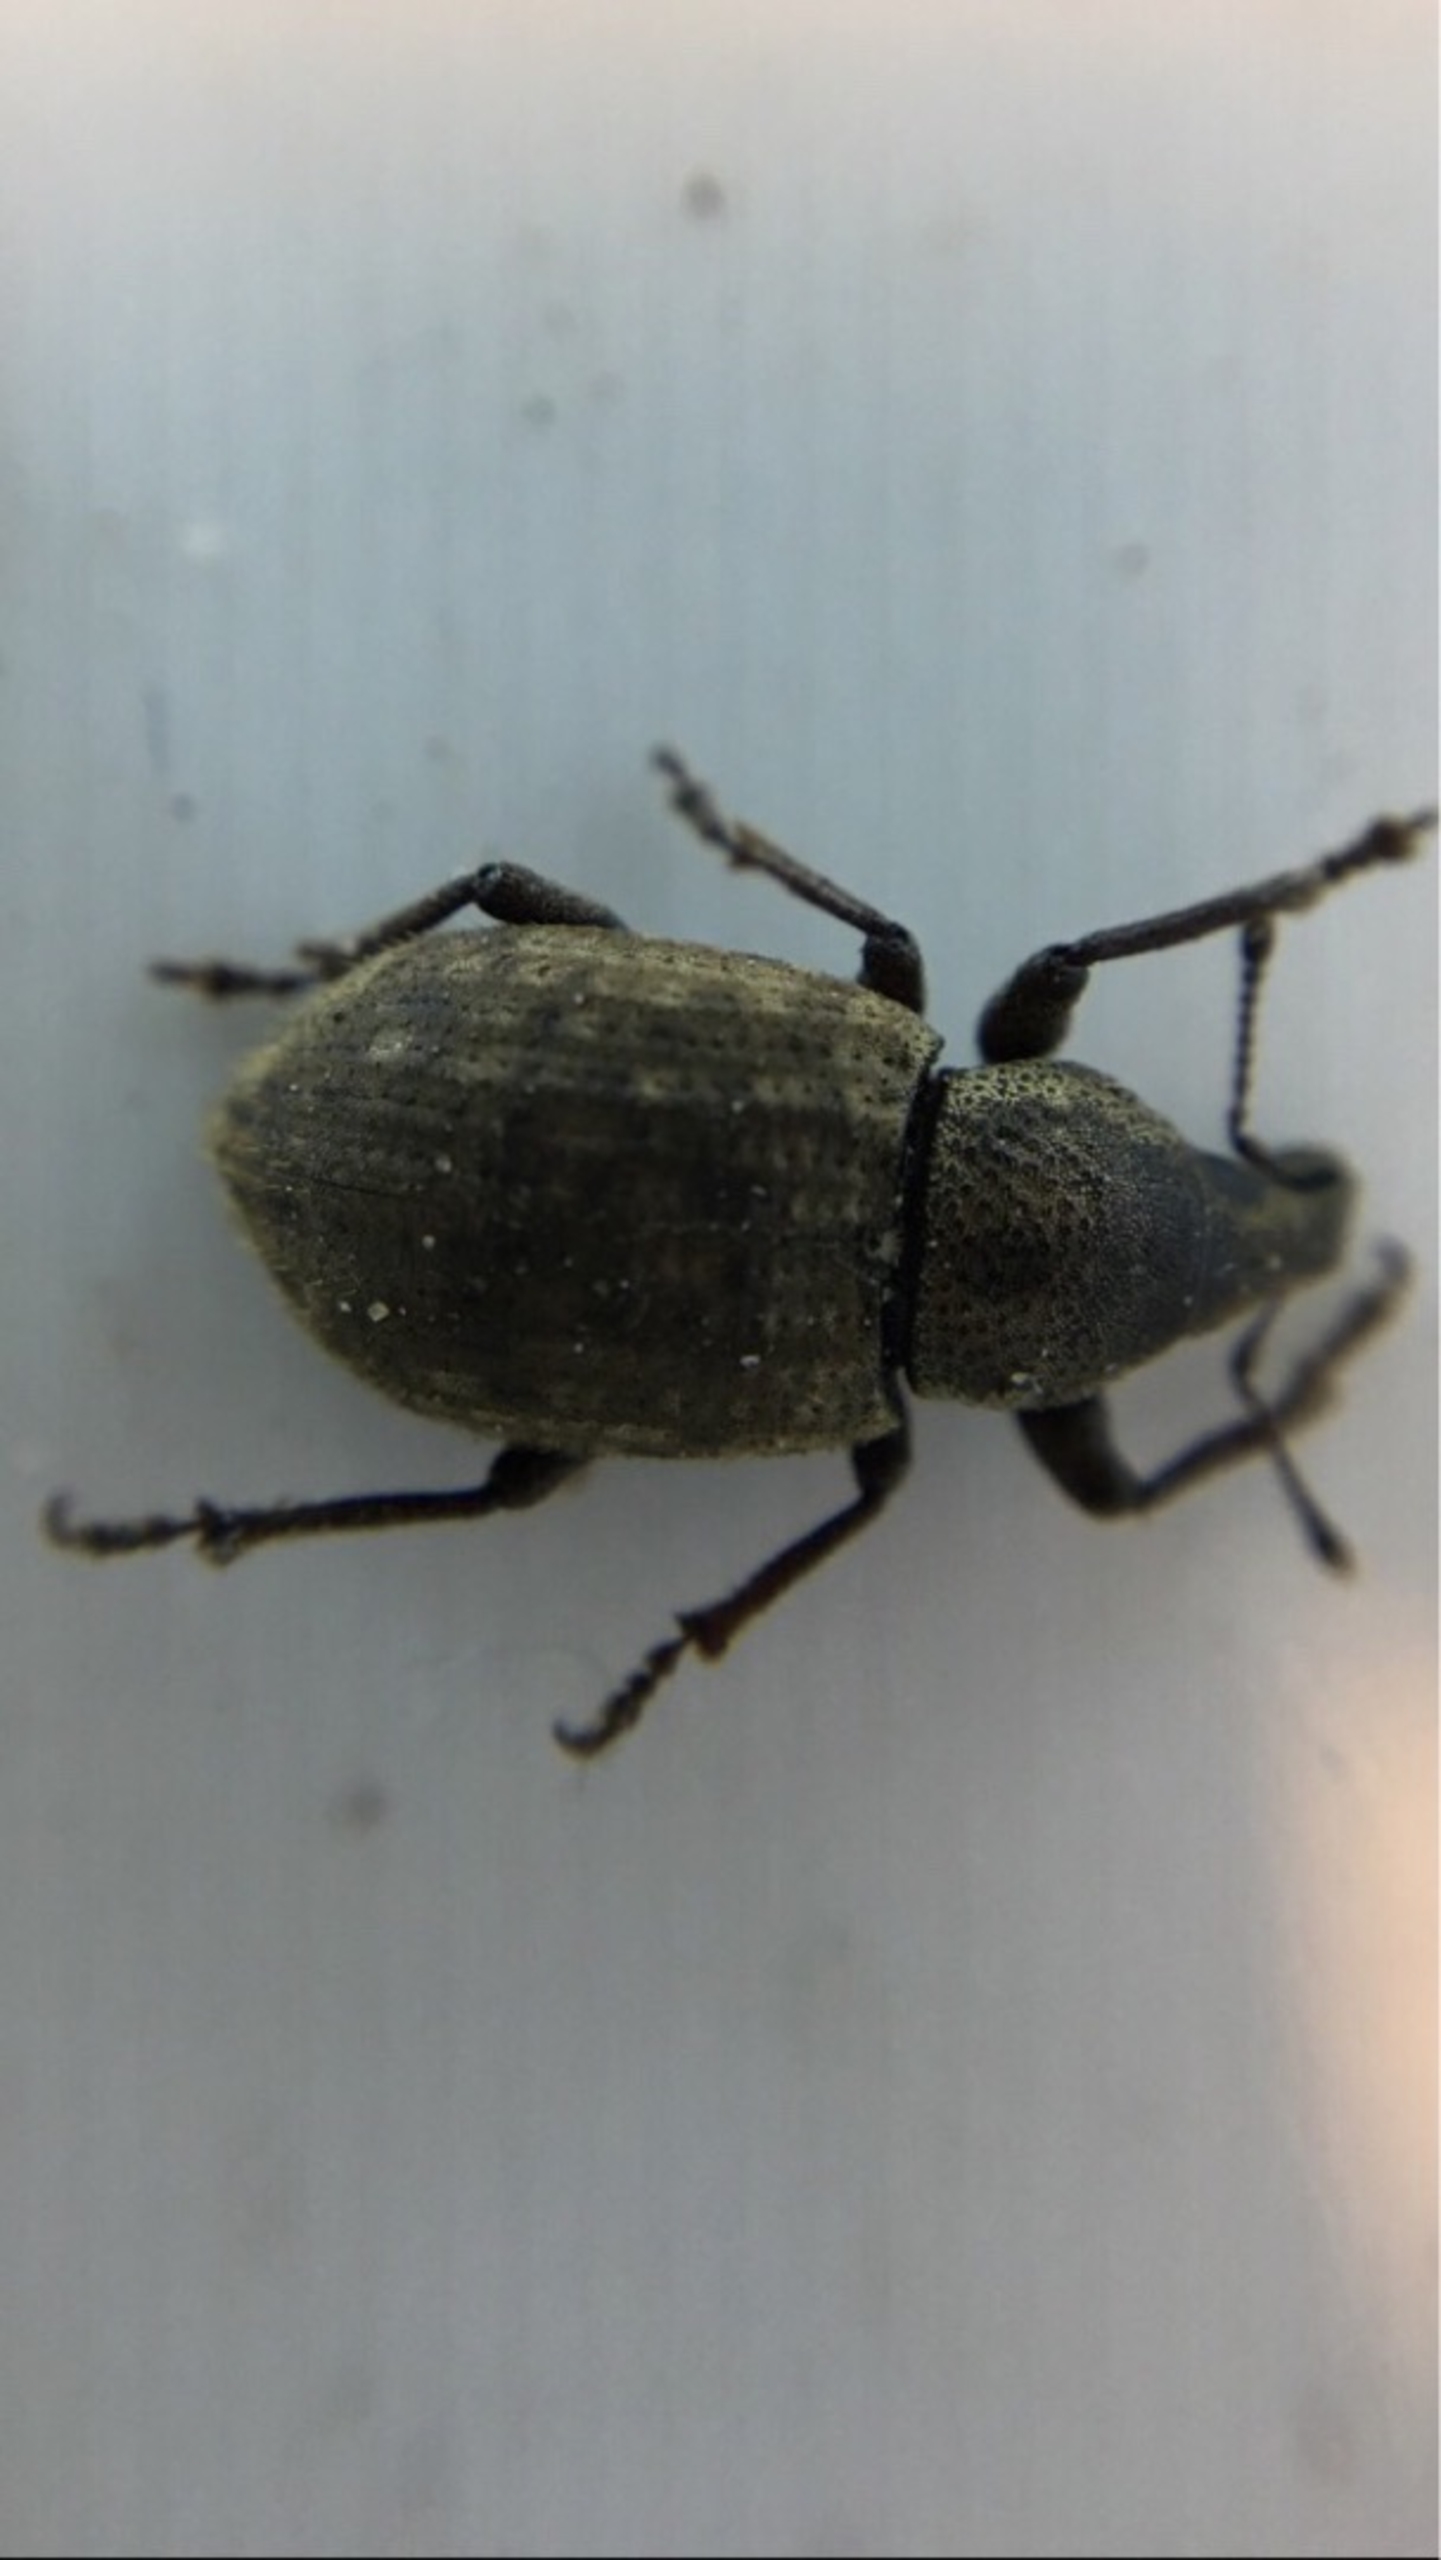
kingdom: Animalia
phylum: Arthropoda
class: Insecta
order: Coleoptera
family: Curculionidae
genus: Barynotus
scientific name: Barynotus obscurus
